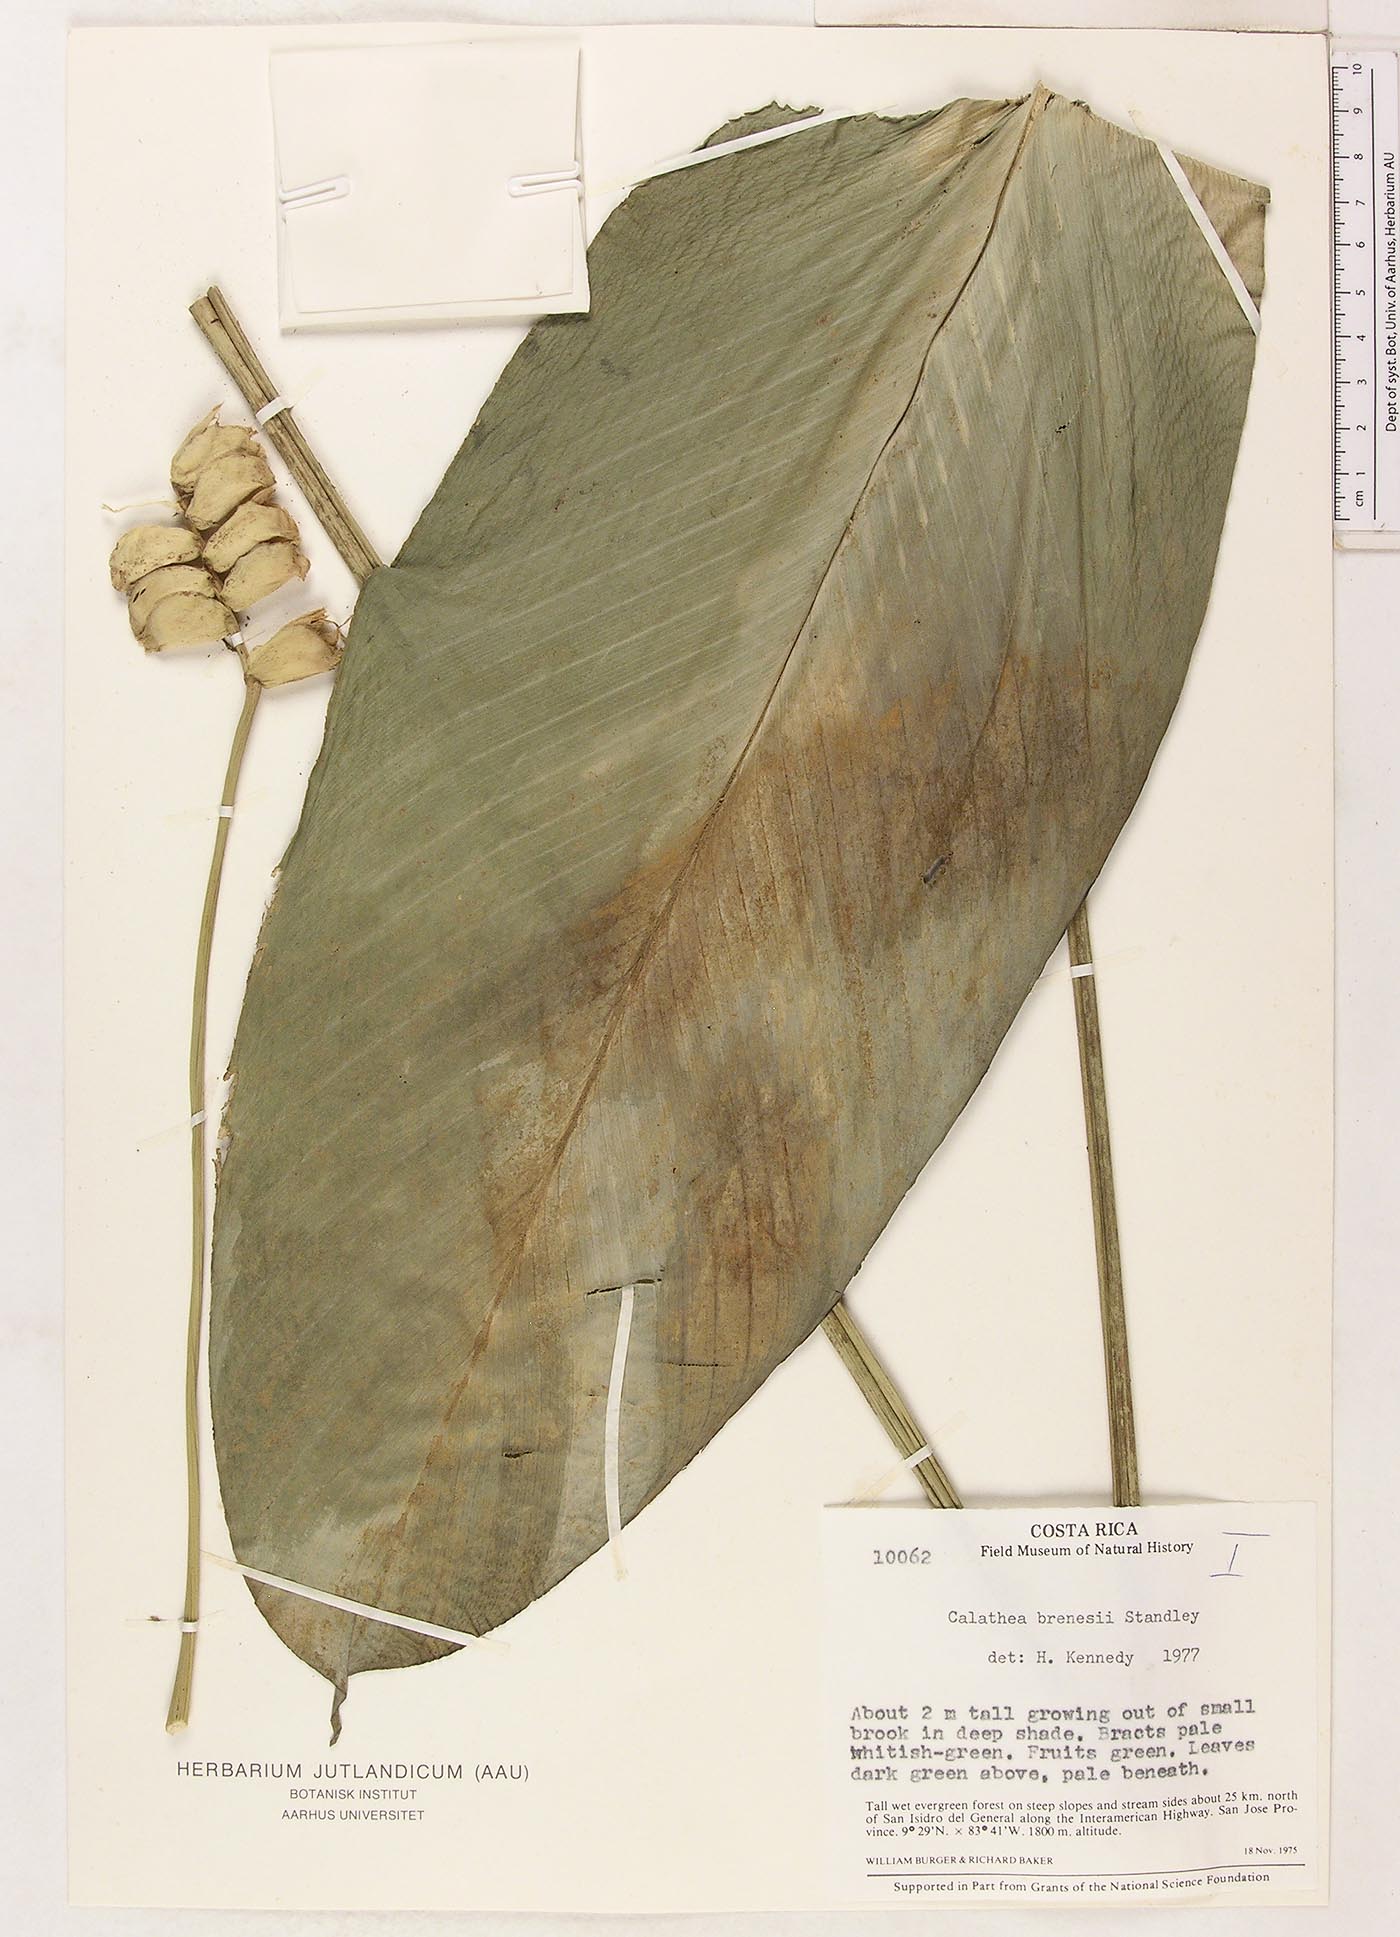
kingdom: Plantae
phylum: Tracheophyta
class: Liliopsida
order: Zingiberales
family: Marantaceae
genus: Calathea
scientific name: Calathea brenesii
